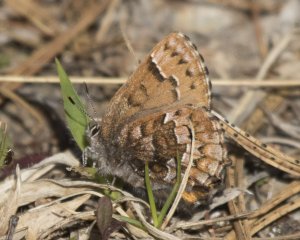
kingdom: Animalia
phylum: Arthropoda
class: Insecta
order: Lepidoptera
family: Lycaenidae
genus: Incisalia
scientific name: Incisalia niphon
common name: Eastern Pine Elfin
